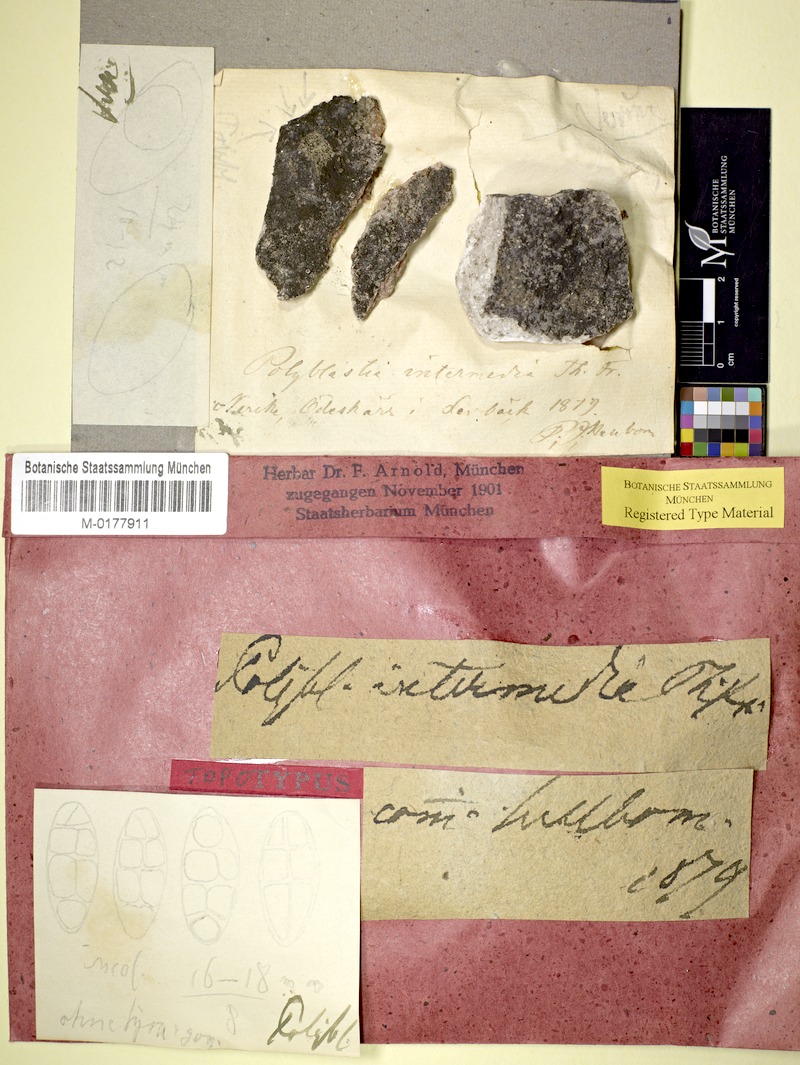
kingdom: Fungi
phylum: Ascomycota
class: Eurotiomycetes
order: Verrucariales
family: Verrucariaceae
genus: Polyblastia
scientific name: Polyblastia intermedia
